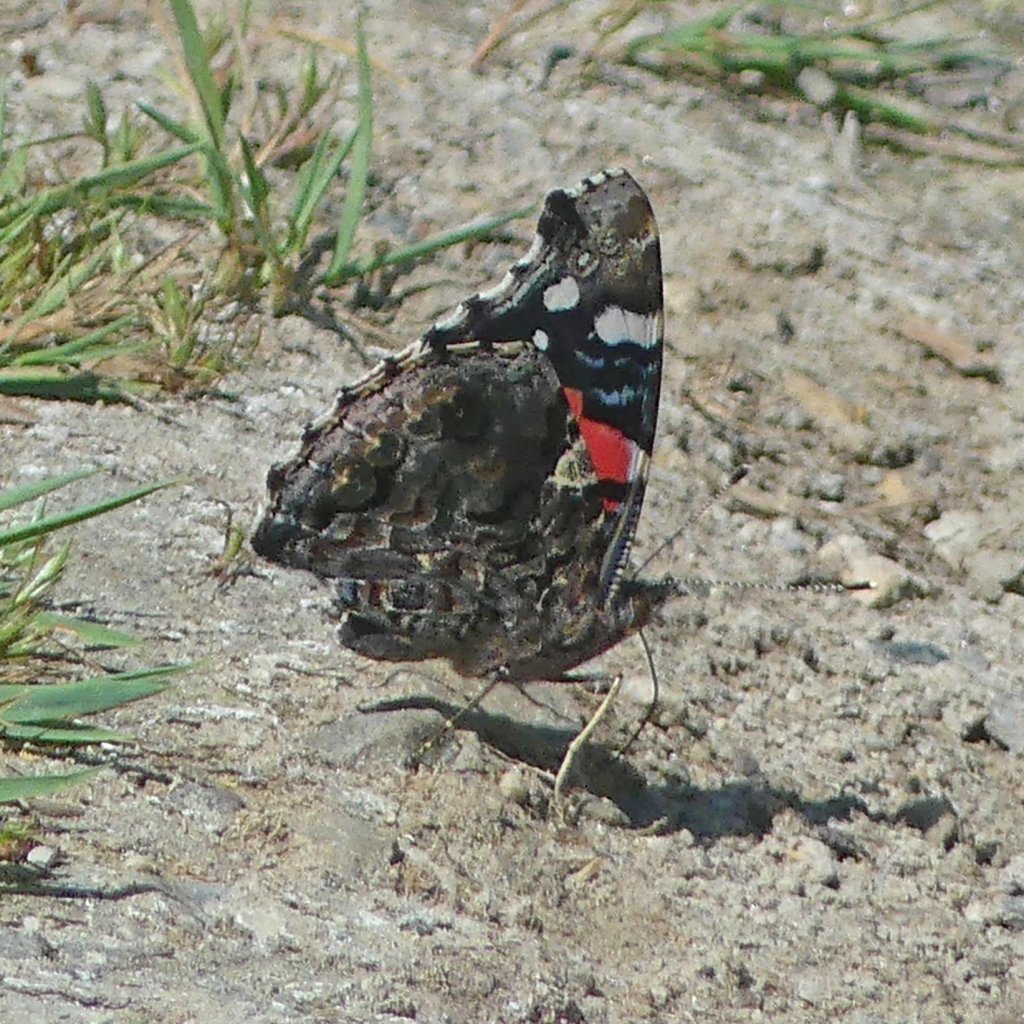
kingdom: Animalia
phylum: Arthropoda
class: Insecta
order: Lepidoptera
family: Nymphalidae
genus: Vanessa
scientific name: Vanessa atalanta
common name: Red Admiral
